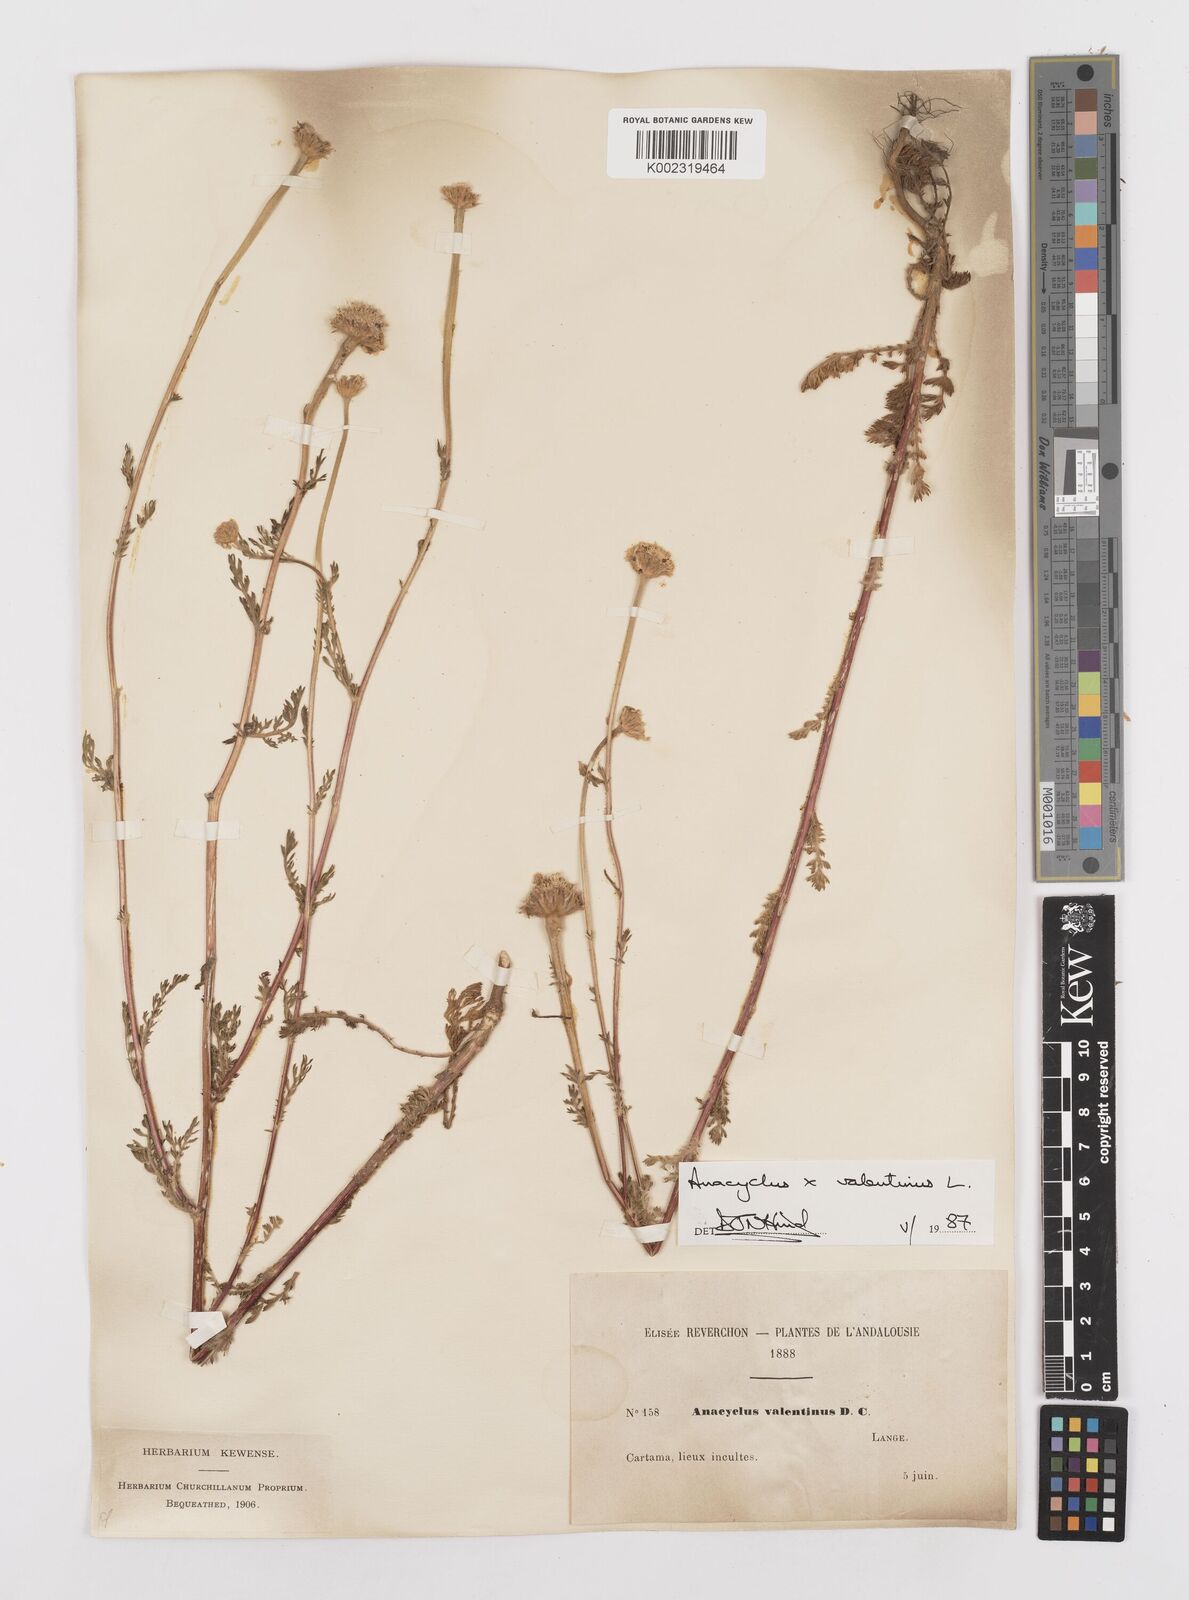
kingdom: Plantae
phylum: Tracheophyta
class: Magnoliopsida
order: Asterales
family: Asteraceae
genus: Anacyclus
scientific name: Anacyclus valentinus
